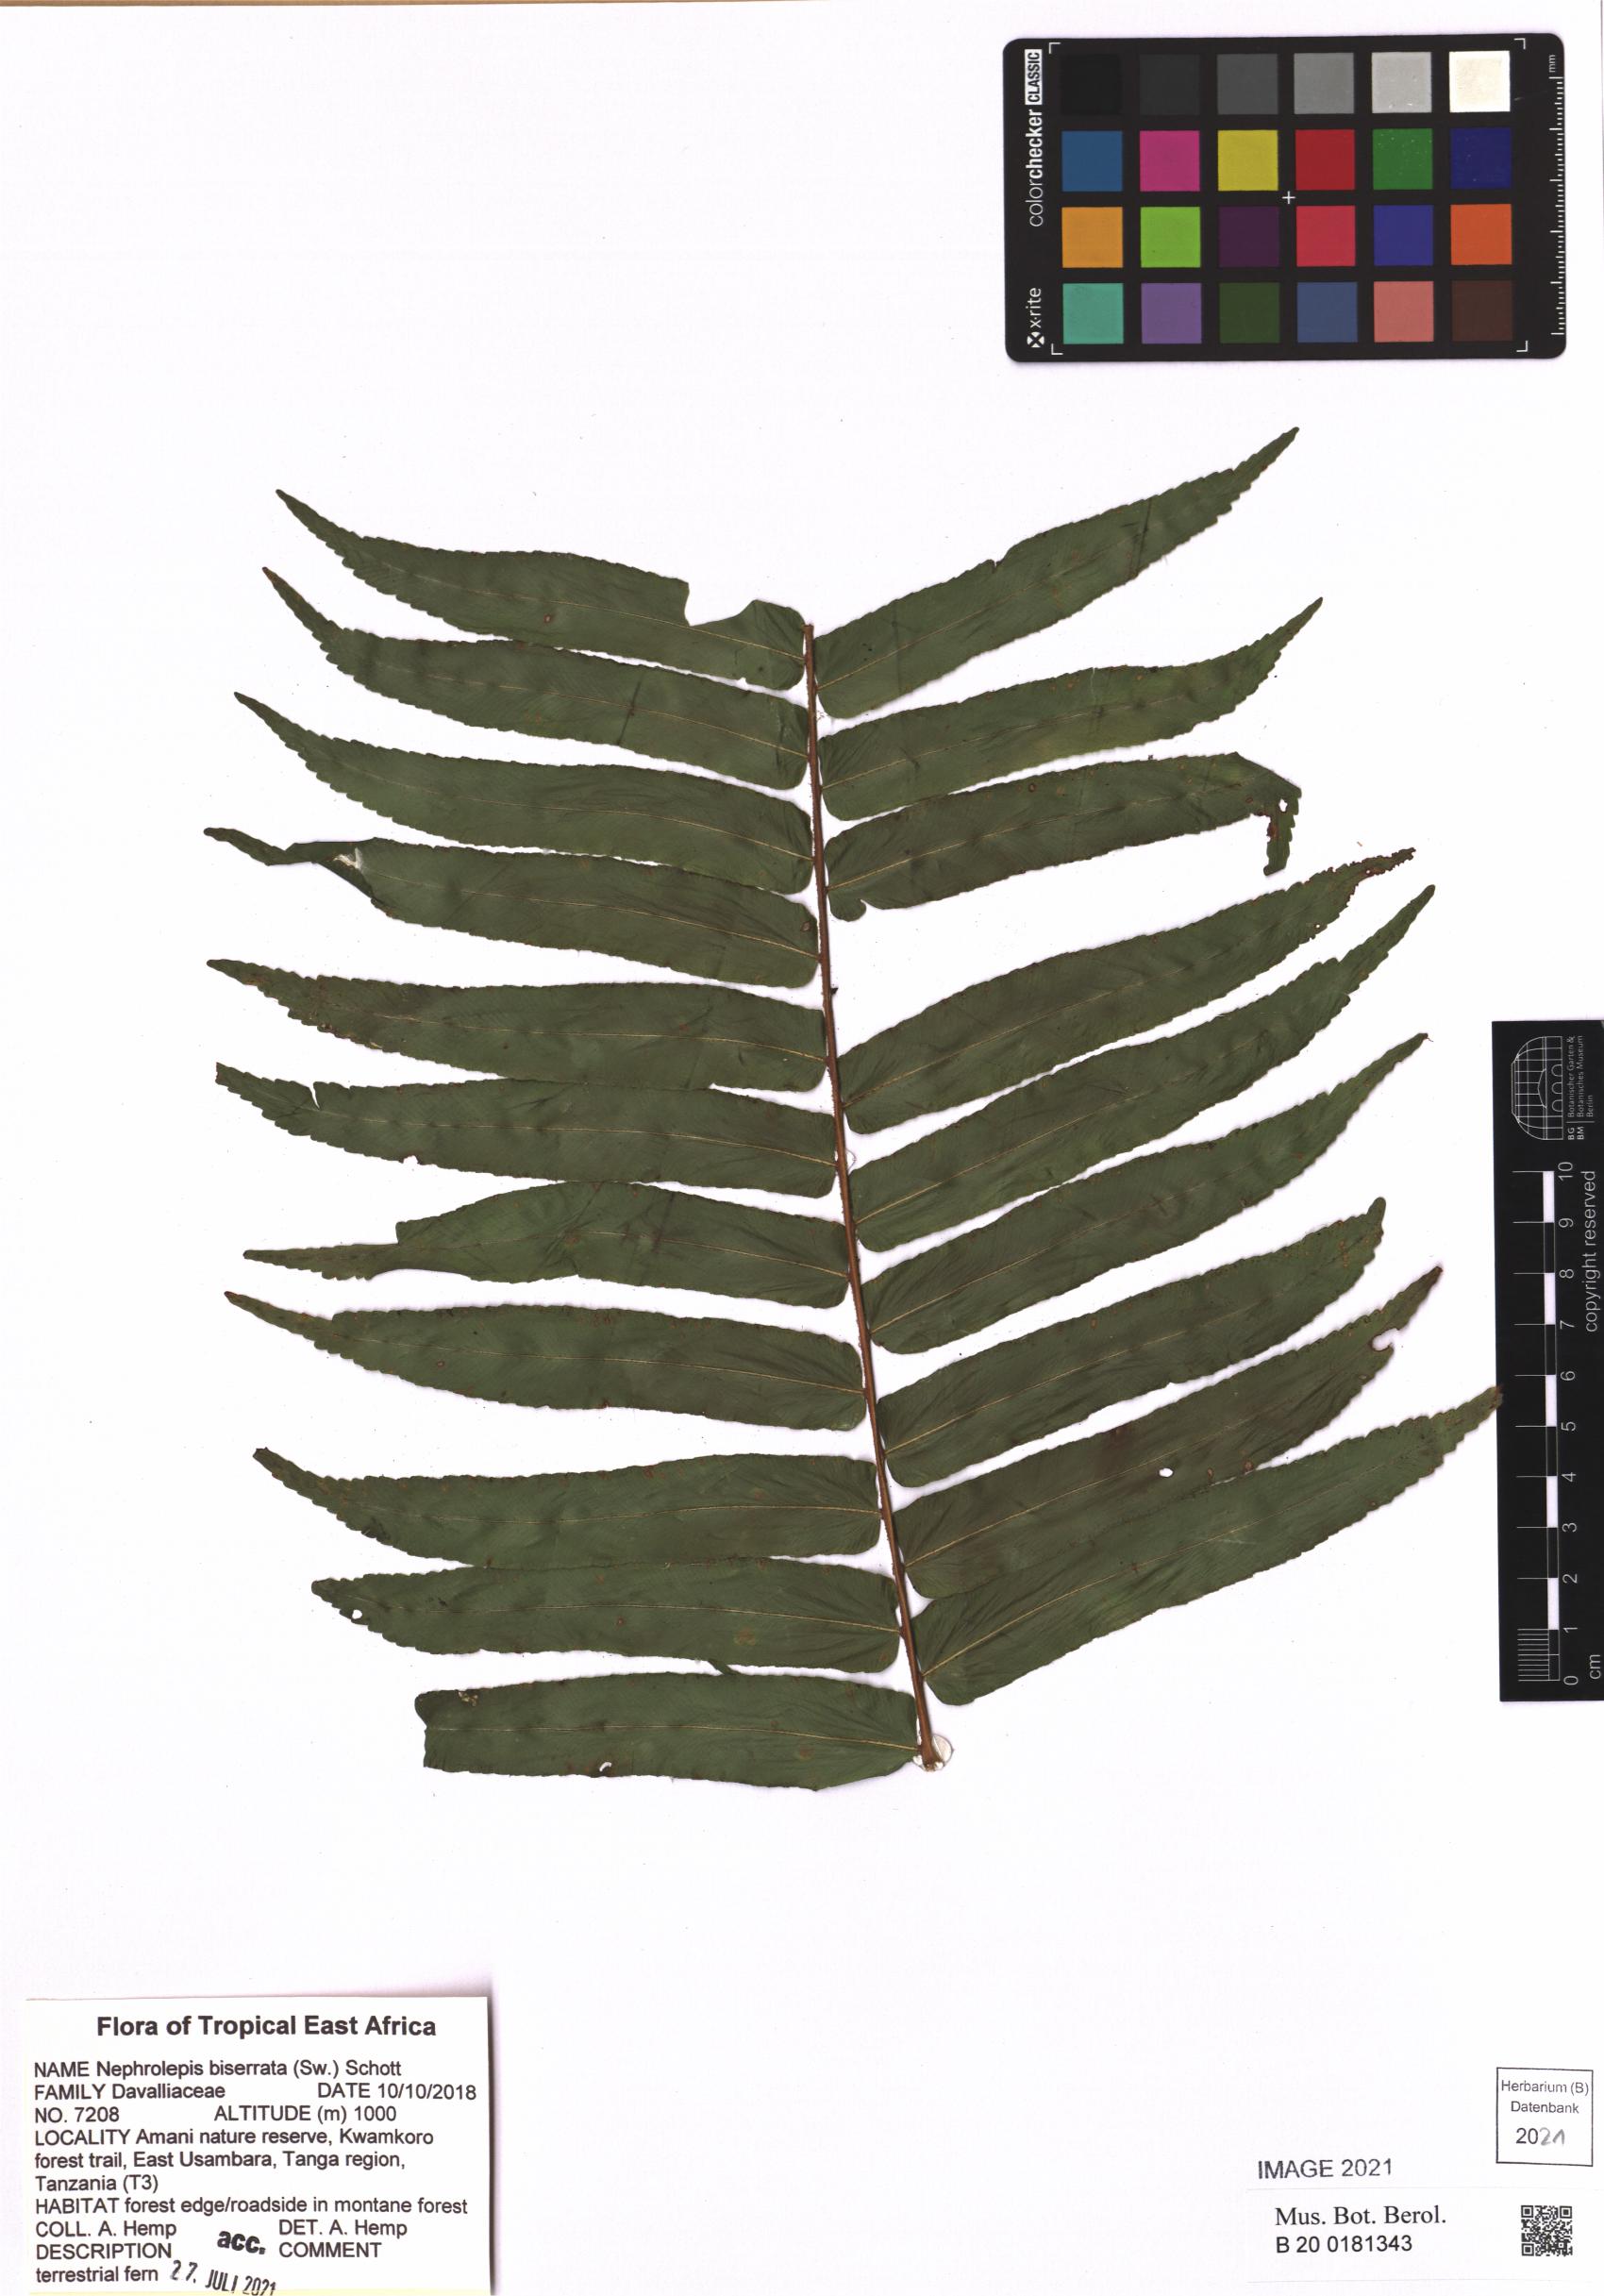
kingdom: Plantae
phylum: Tracheophyta
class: Polypodiopsida
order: Polypodiales
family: Nephrolepidaceae
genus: Nephrolepis
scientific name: Nephrolepis biserrata
